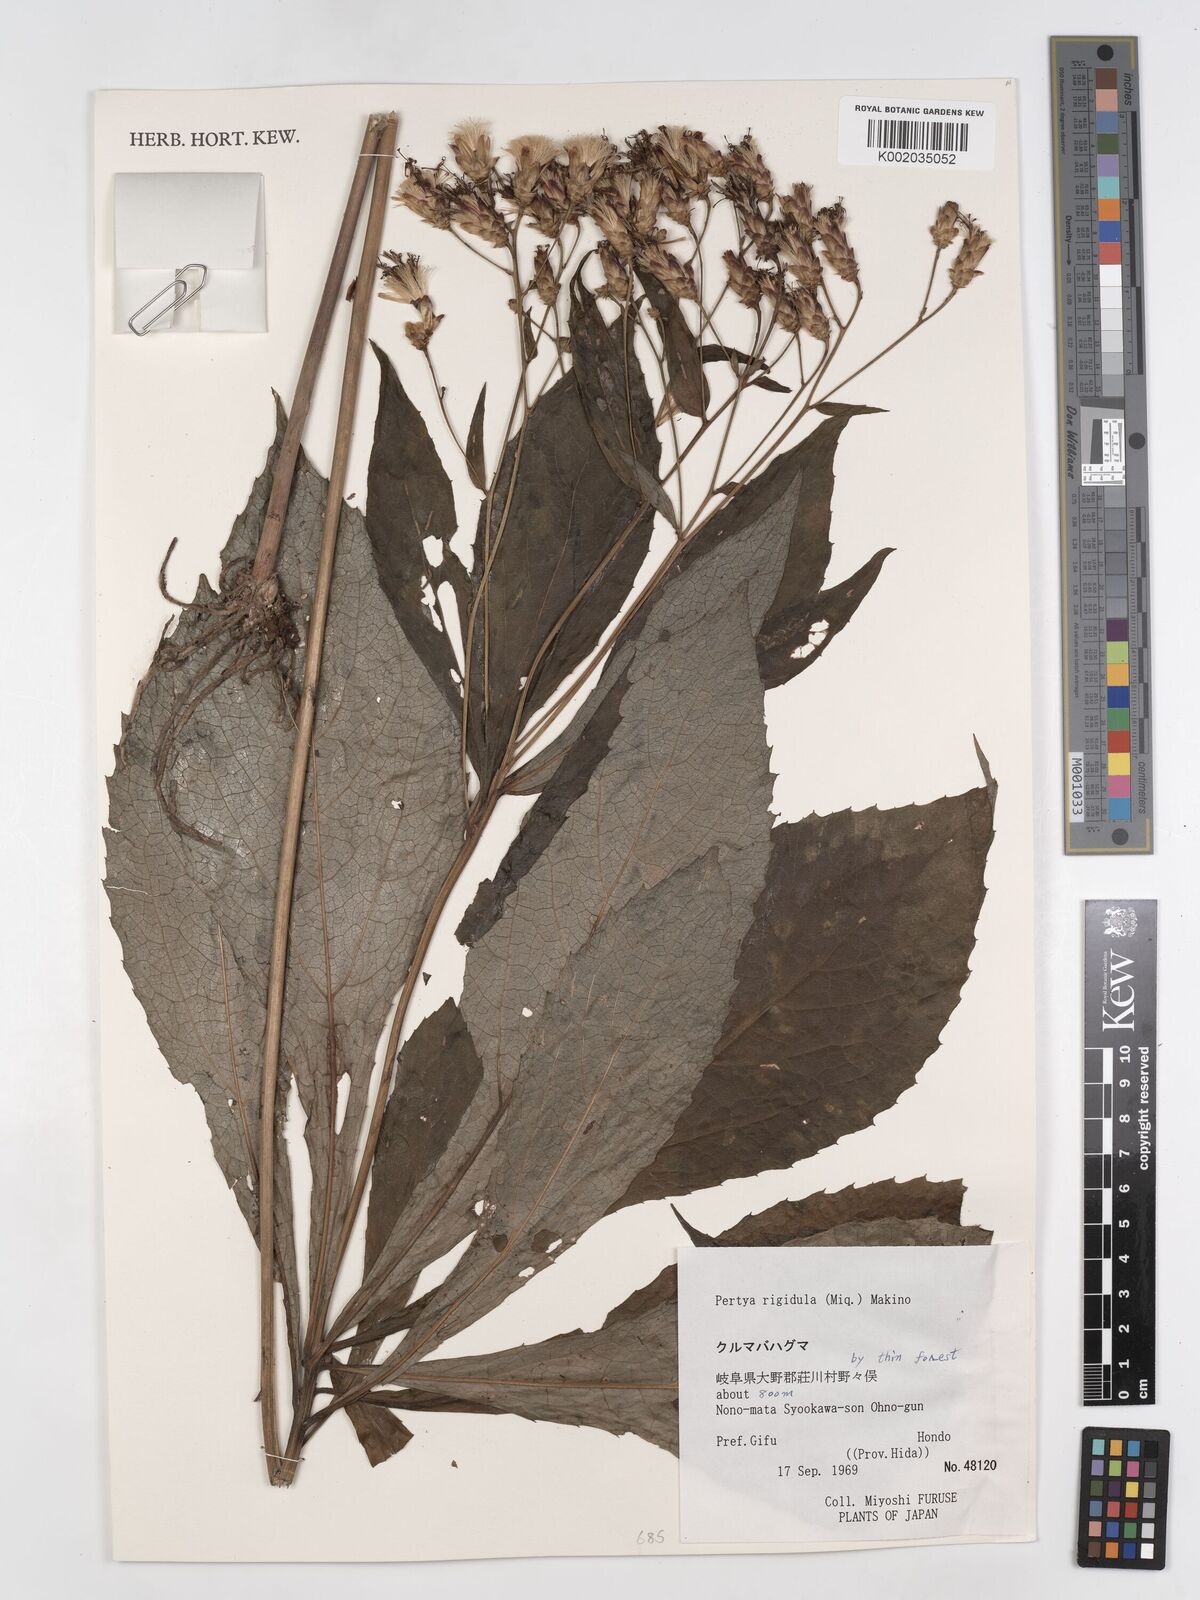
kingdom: Plantae
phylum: Tracheophyta
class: Magnoliopsida
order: Asterales
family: Asteraceae
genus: Pertya
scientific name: Pertya rigidula
